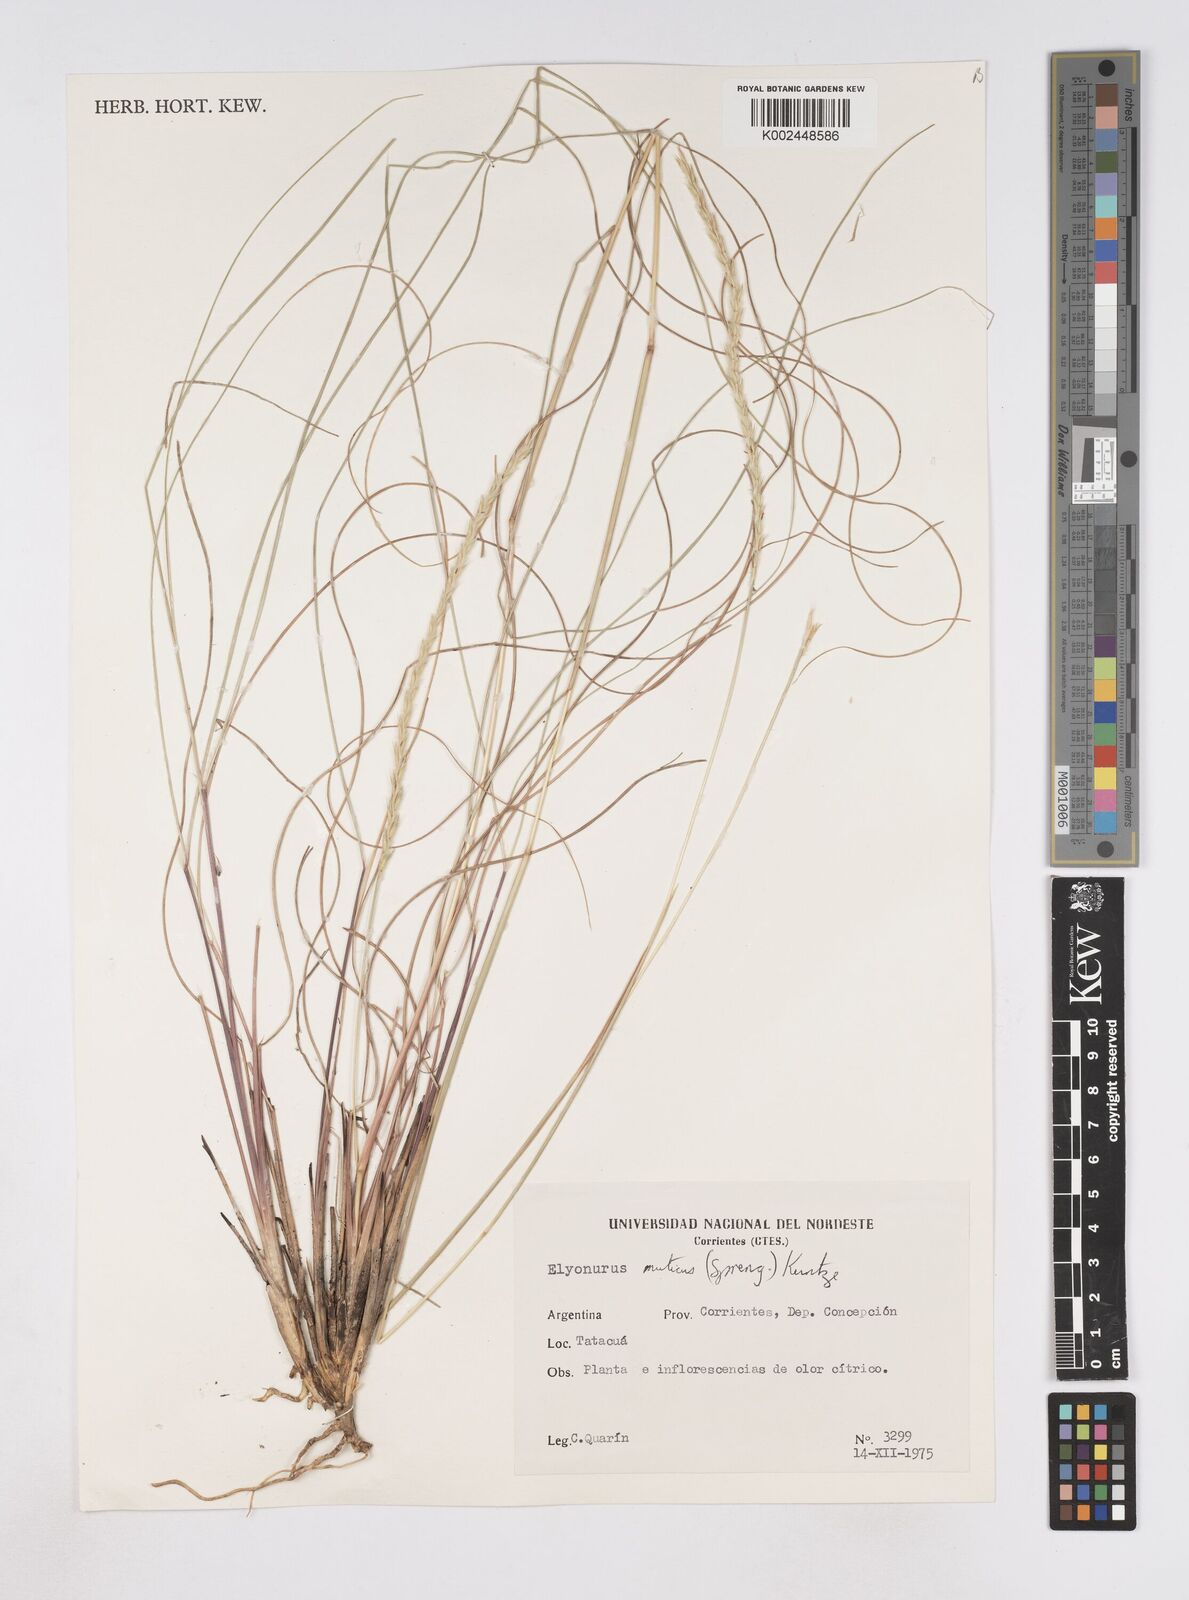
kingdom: Plantae
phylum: Tracheophyta
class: Liliopsida
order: Poales
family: Poaceae
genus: Elionurus
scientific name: Elionurus muticus
